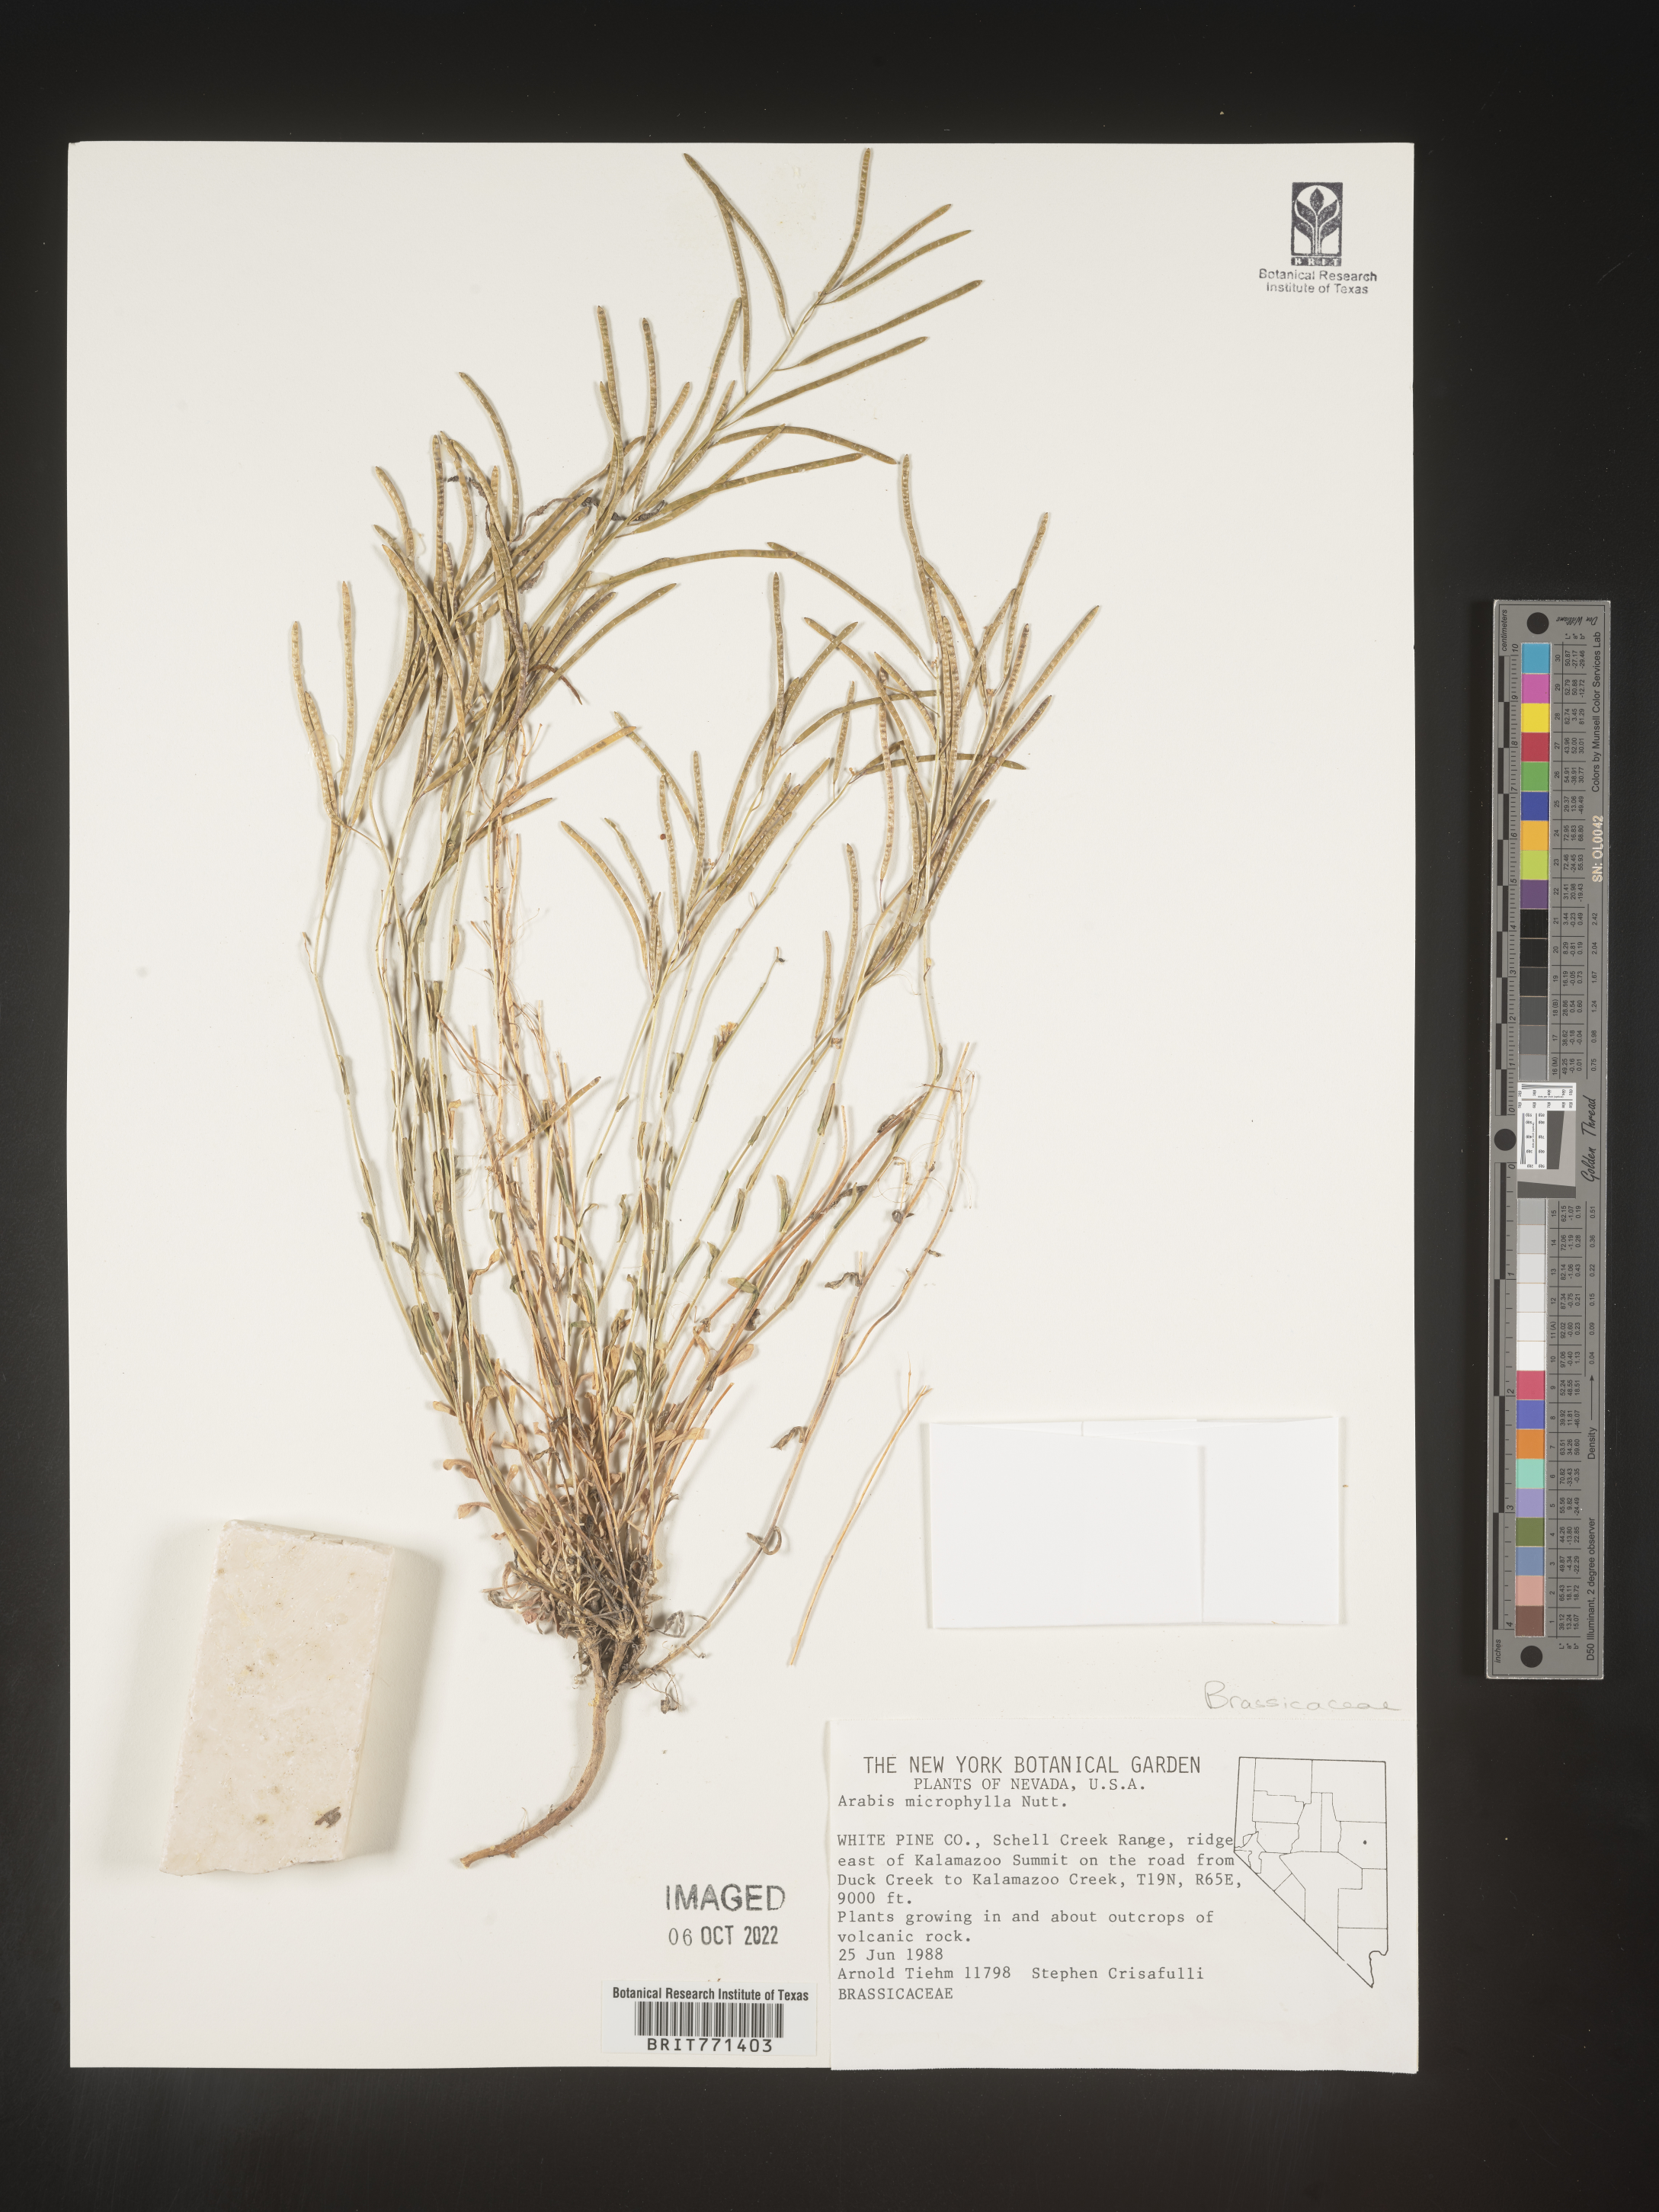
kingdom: Plantae
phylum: Tracheophyta
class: Magnoliopsida
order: Brassicales
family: Brassicaceae
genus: Arabis
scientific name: Arabis
